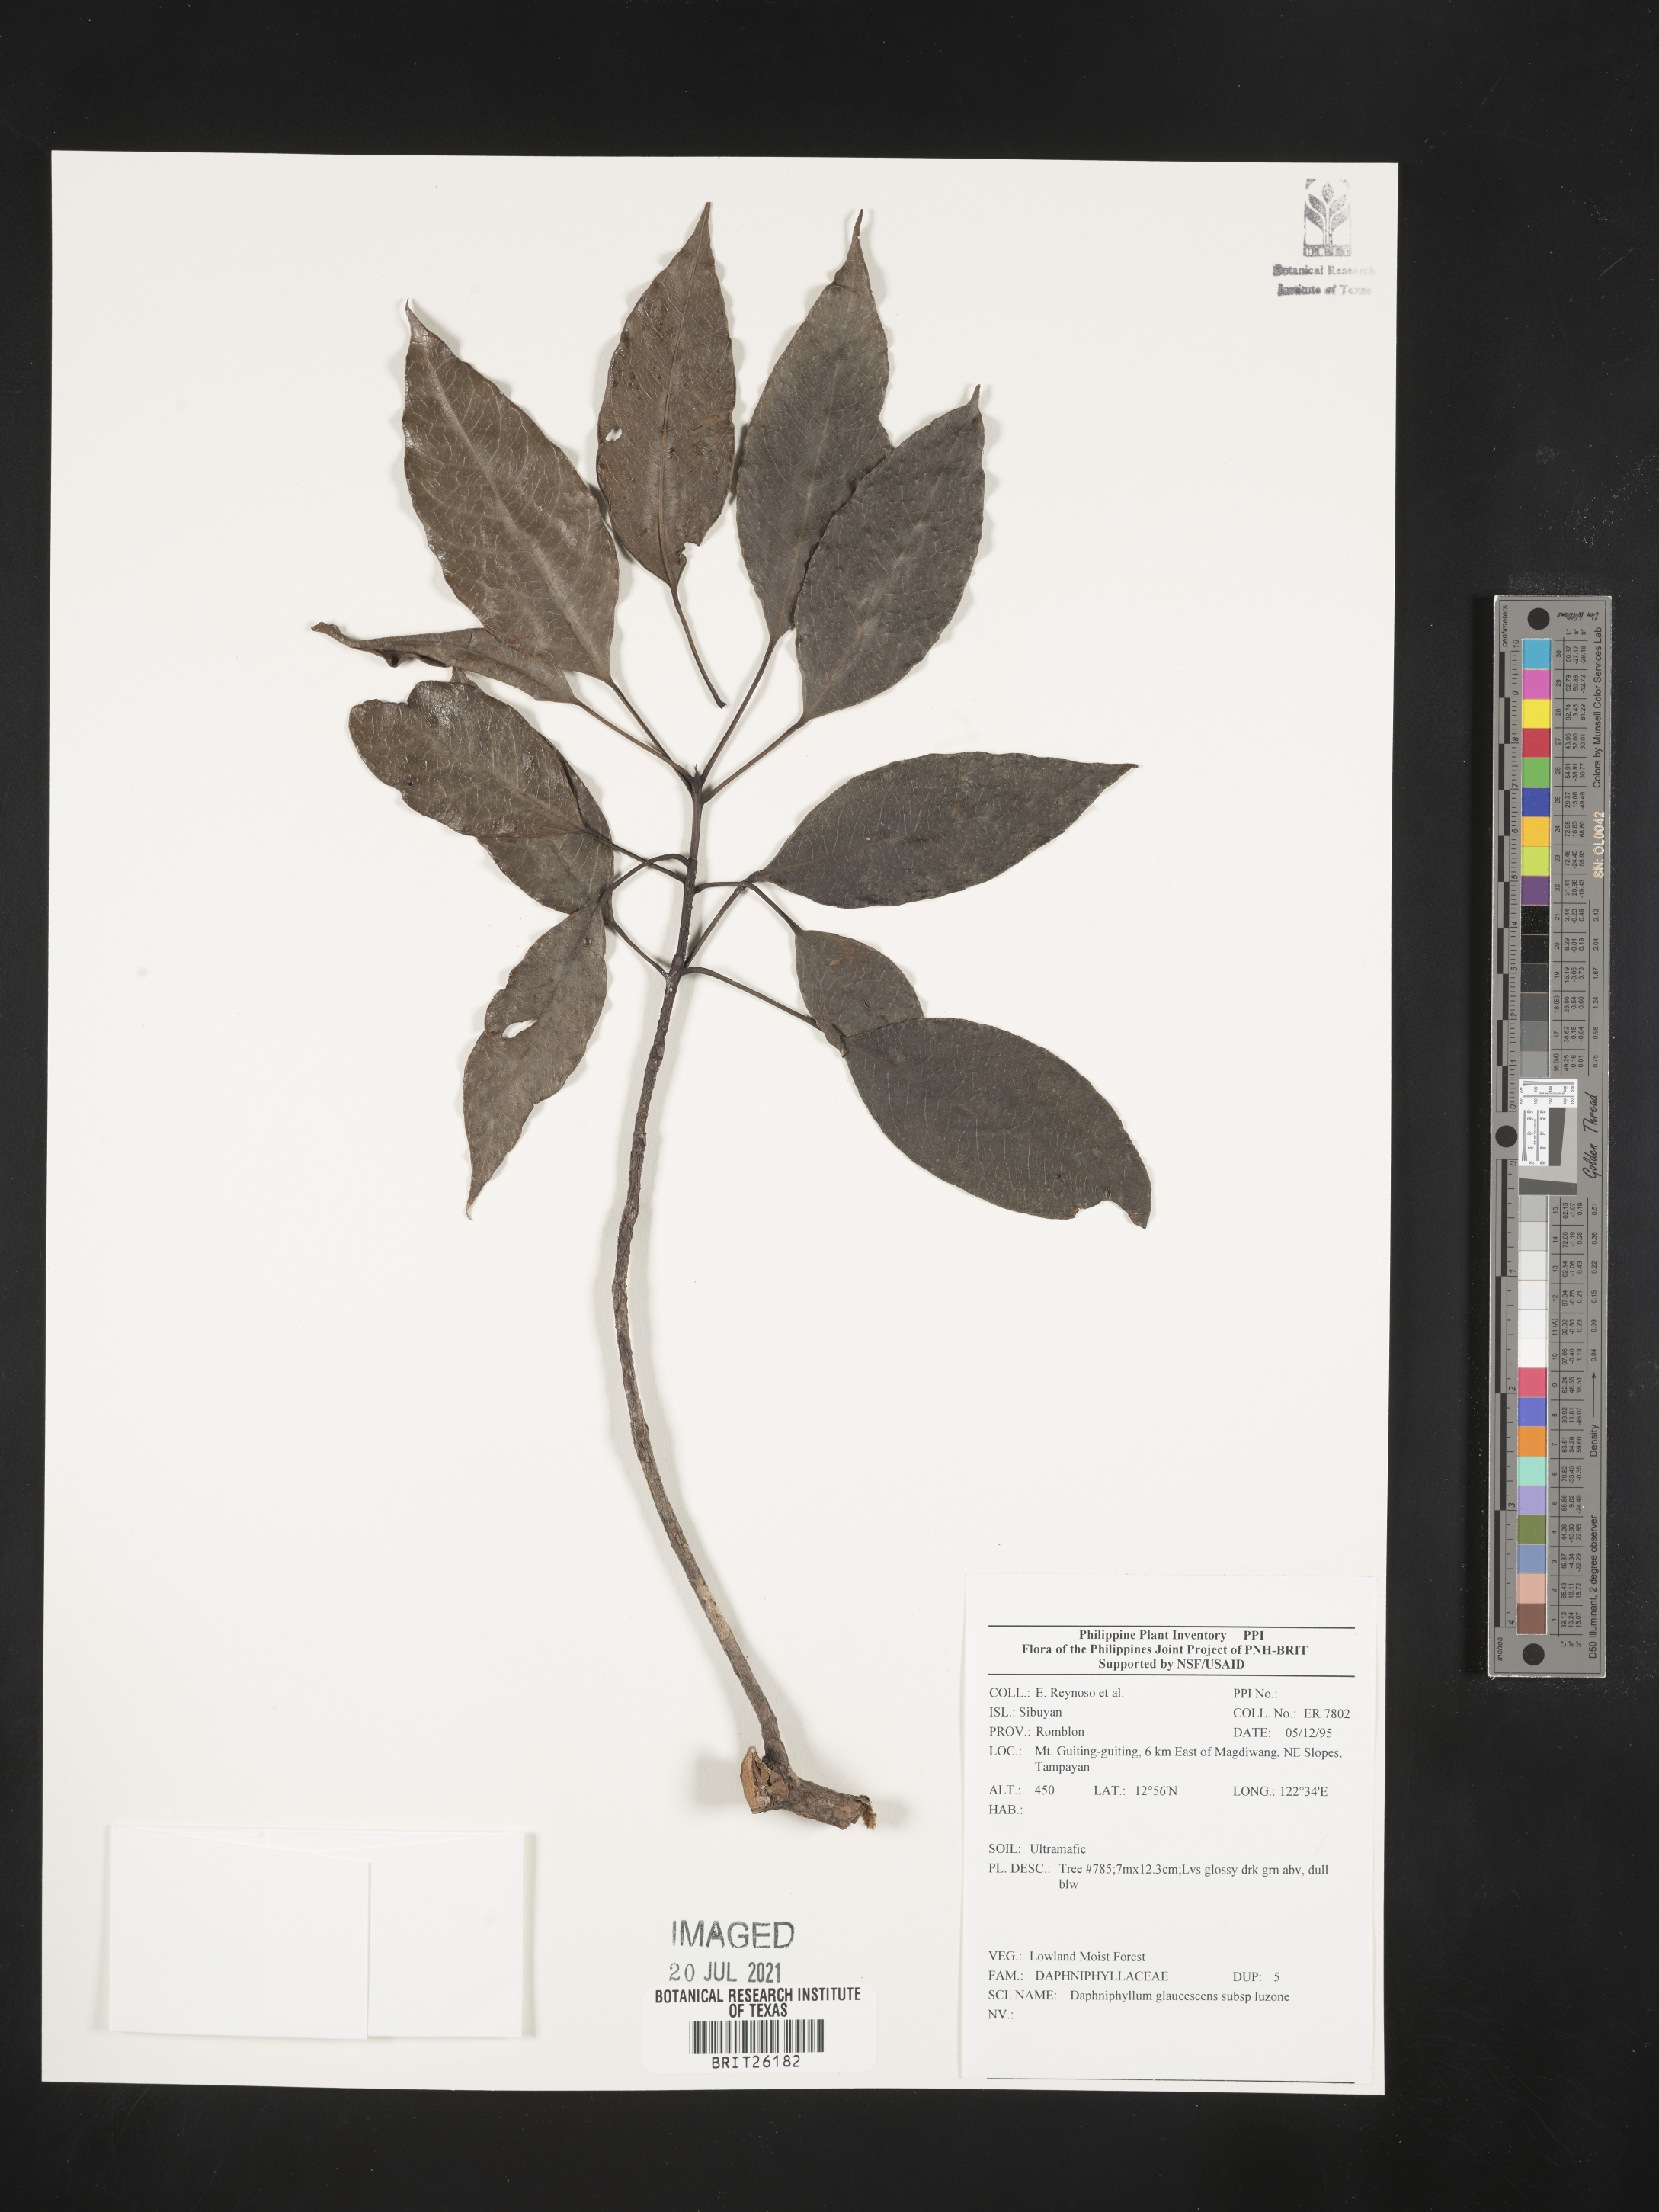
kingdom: Plantae
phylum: Tracheophyta
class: Magnoliopsida
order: Saxifragales
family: Daphniphyllaceae
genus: Daphniphyllum
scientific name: Daphniphyllum glaucescens
